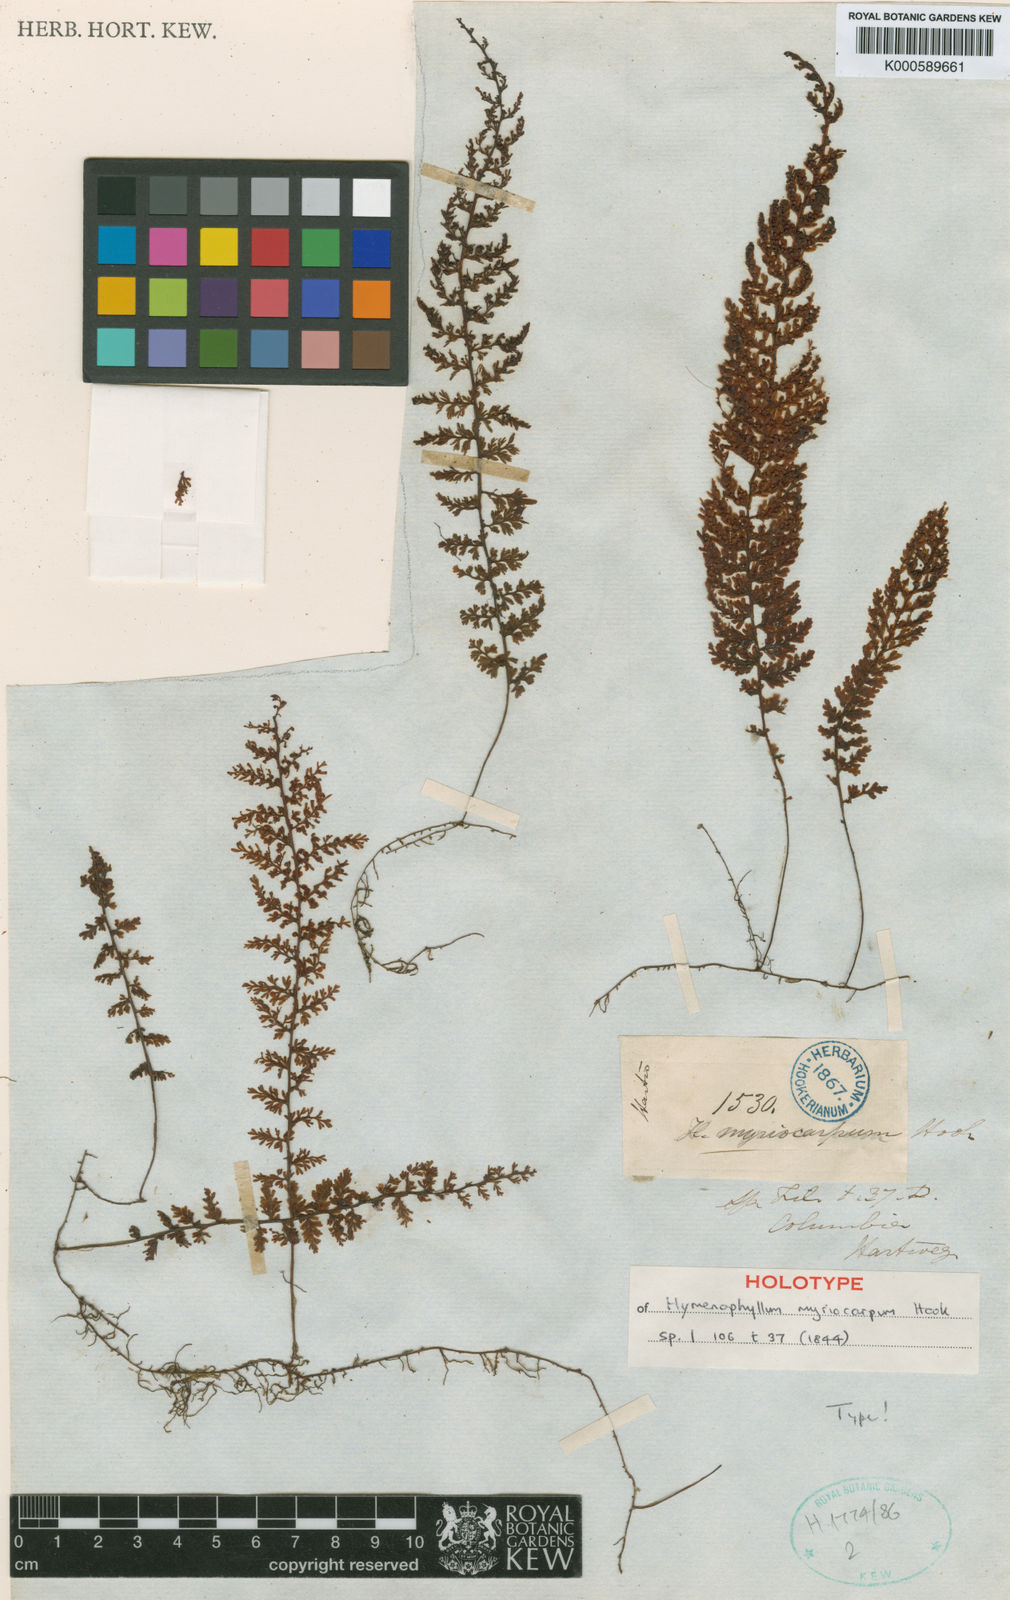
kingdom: Plantae
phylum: Tracheophyta
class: Polypodiopsida
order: Hymenophyllales
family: Hymenophyllaceae
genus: Hymenophyllum
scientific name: Hymenophyllum myriocarpum
